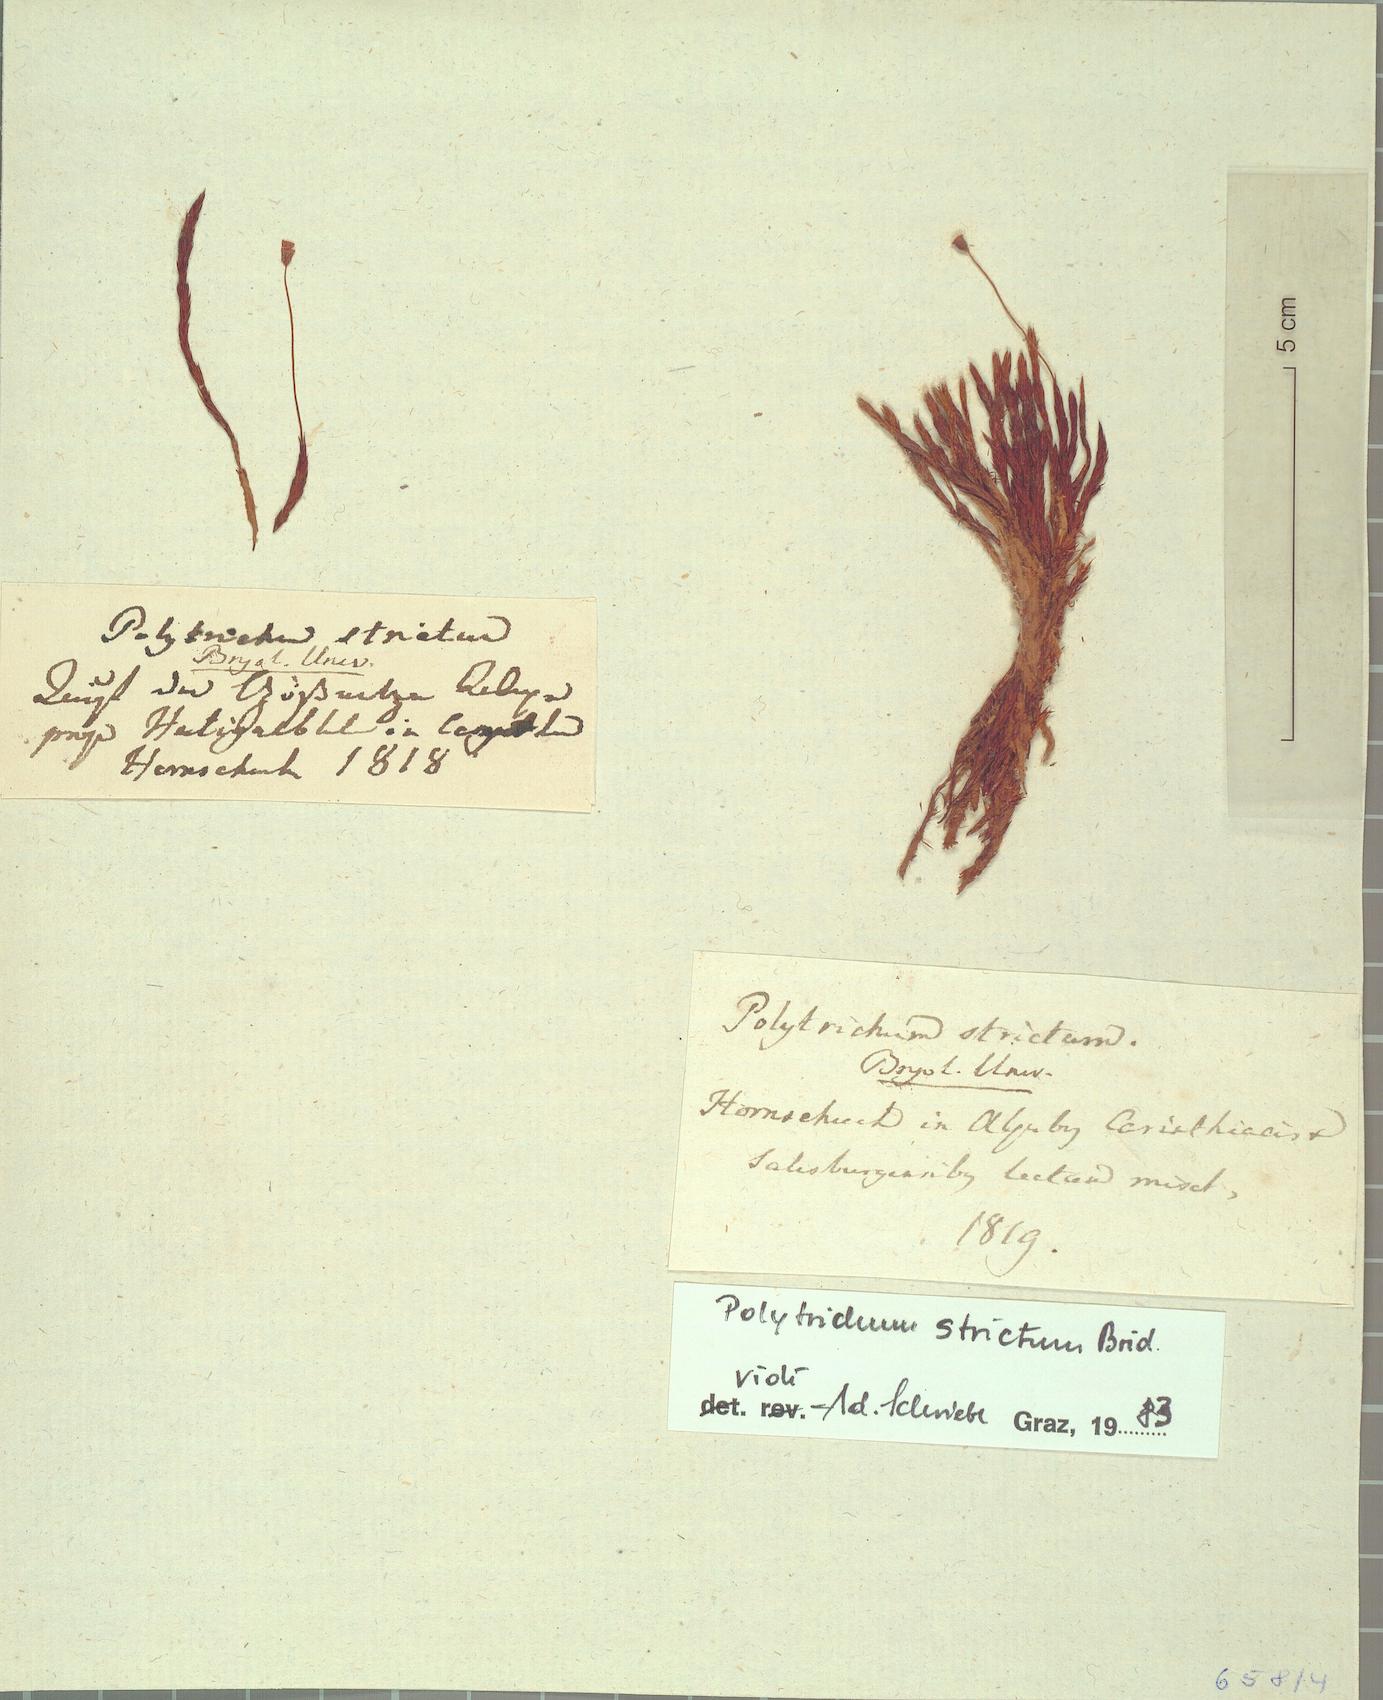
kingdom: Plantae
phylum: Bryophyta
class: Polytrichopsida
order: Polytrichales
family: Polytrichaceae
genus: Polytrichum
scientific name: Polytrichum strictum
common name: Bog haircap moss
